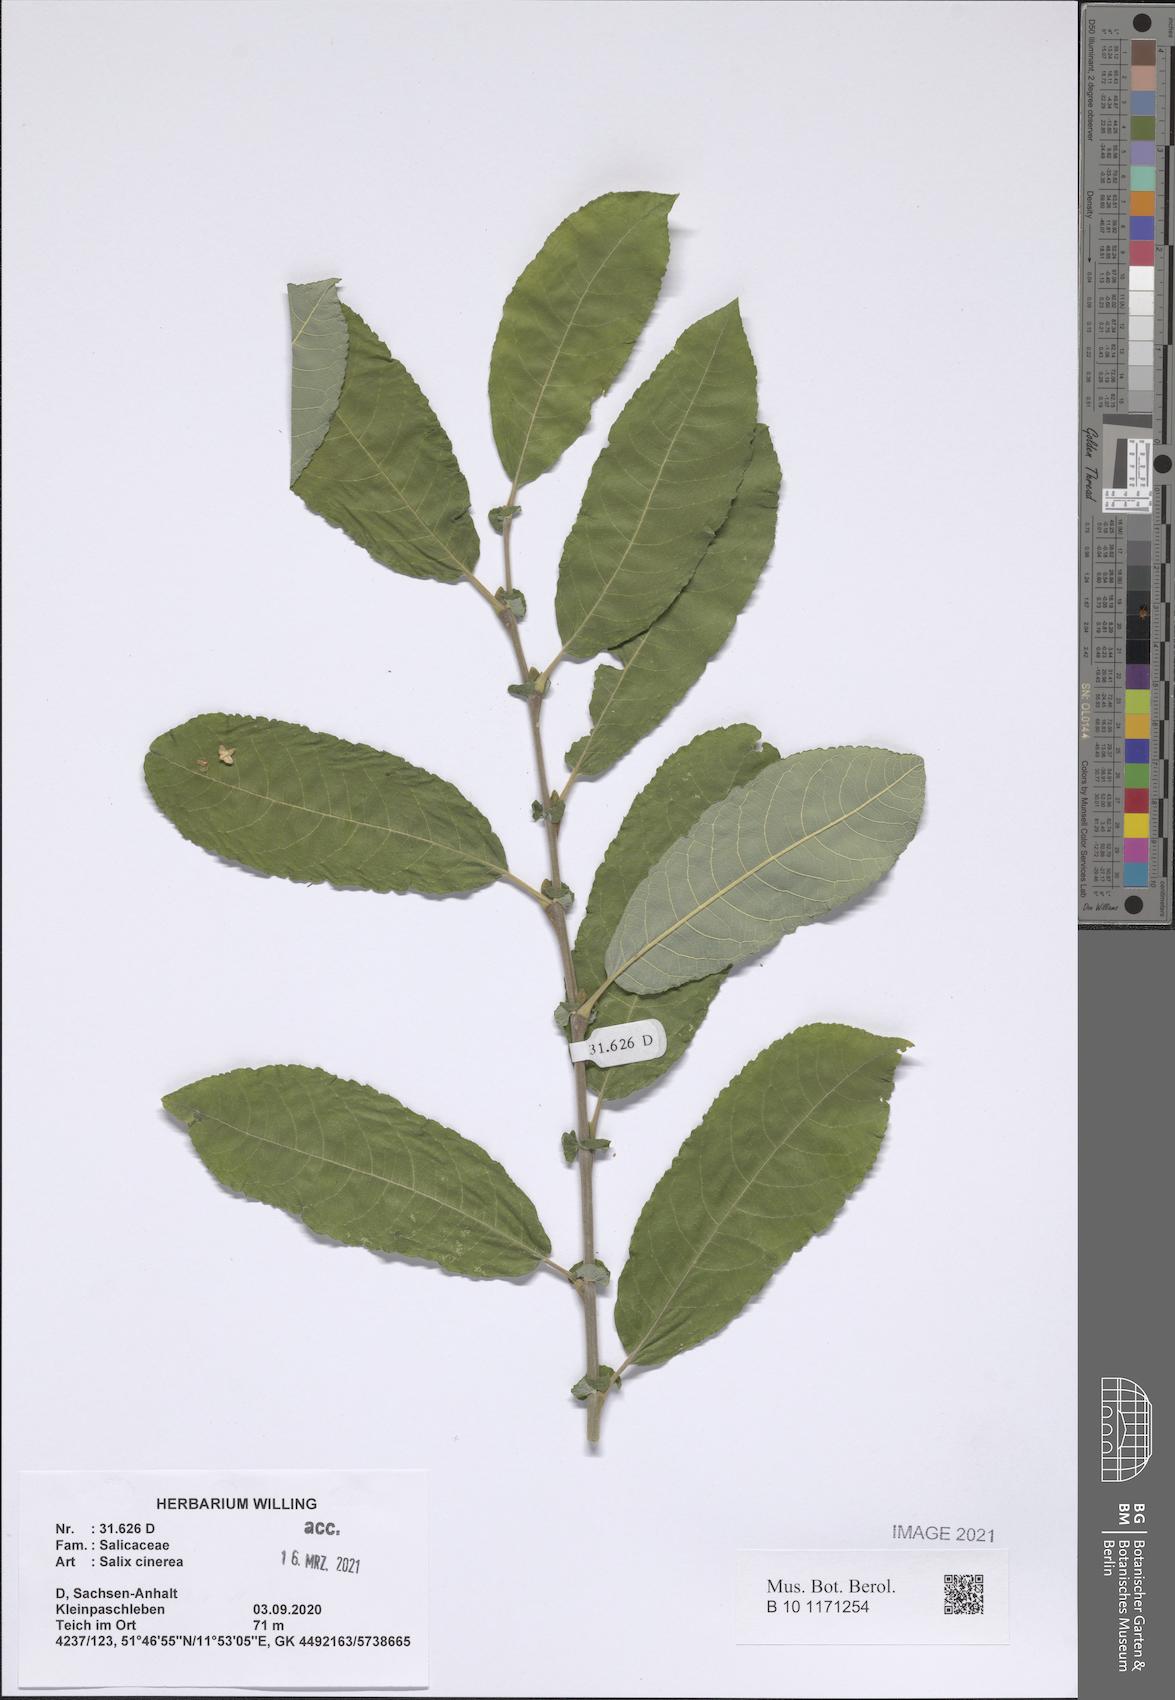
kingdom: Plantae
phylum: Tracheophyta
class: Magnoliopsida
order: Malpighiales
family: Salicaceae
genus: Salix
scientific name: Salix cinerea
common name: Common sallow
